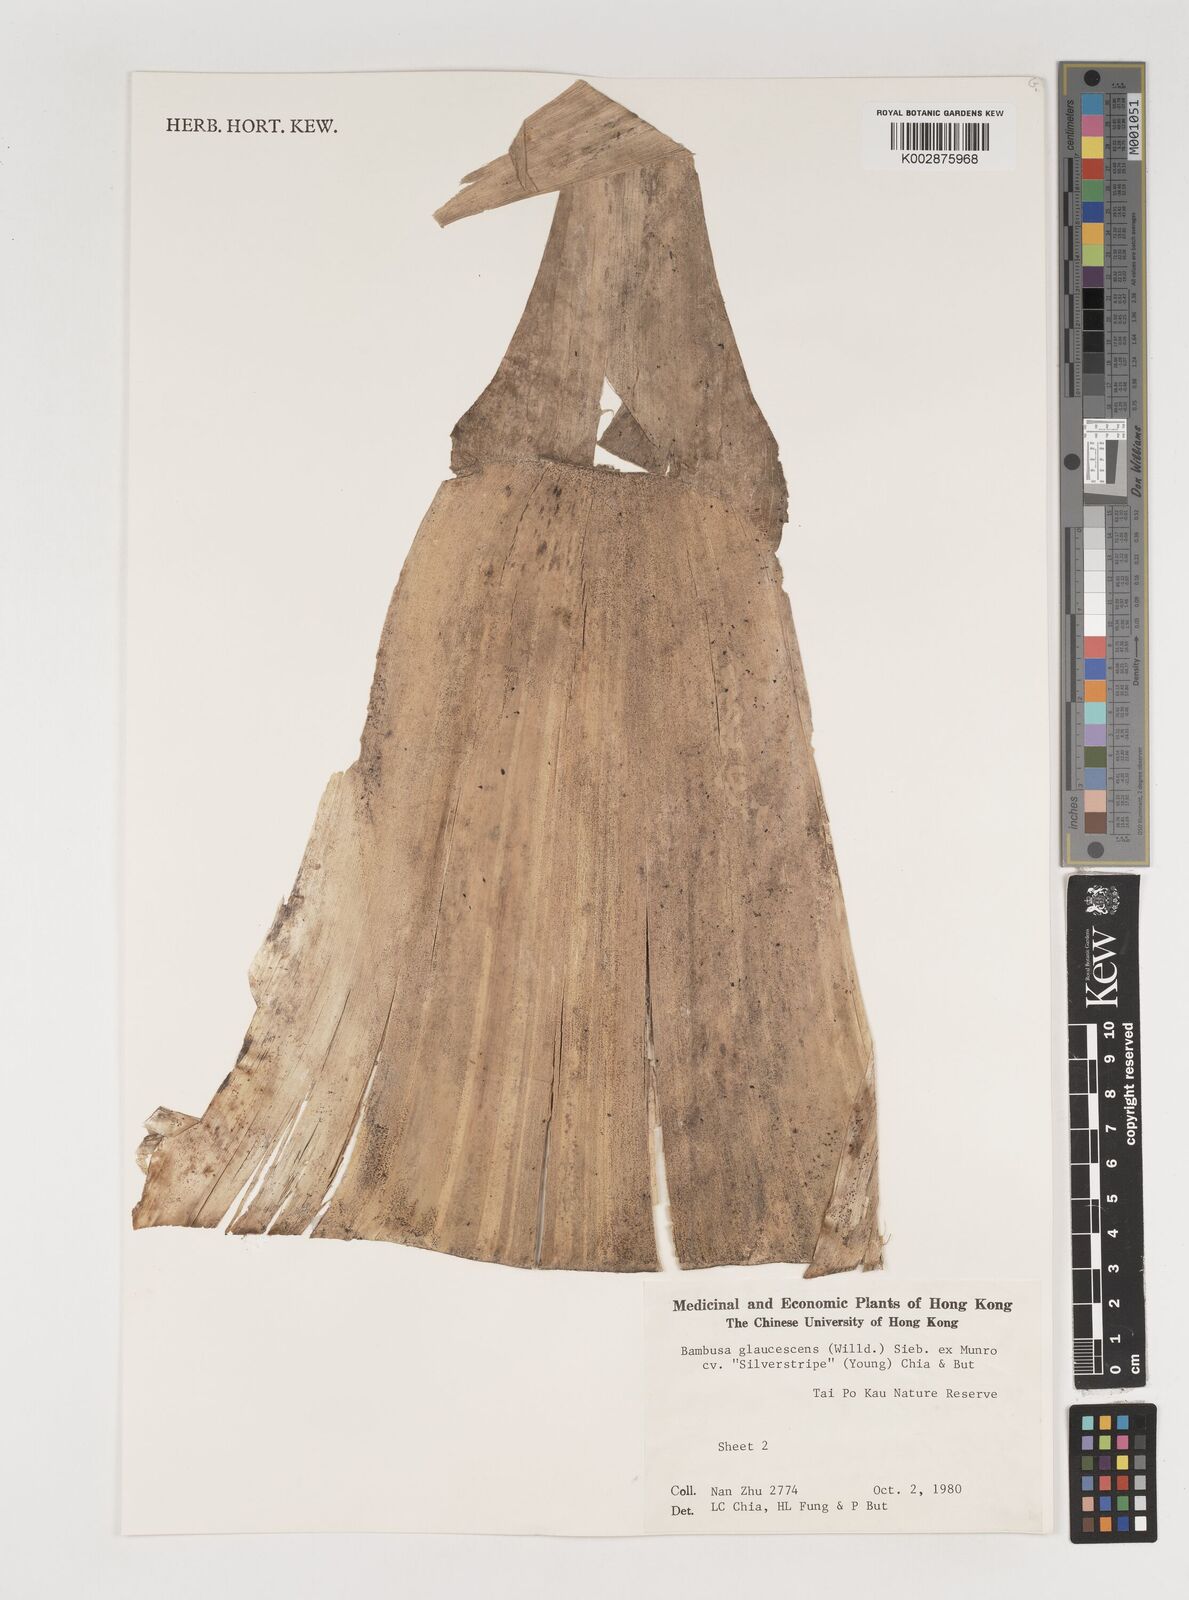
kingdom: Plantae
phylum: Tracheophyta
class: Liliopsida
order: Poales
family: Poaceae
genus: Bambusa
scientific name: Bambusa multiplex
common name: Hedge bamboo
